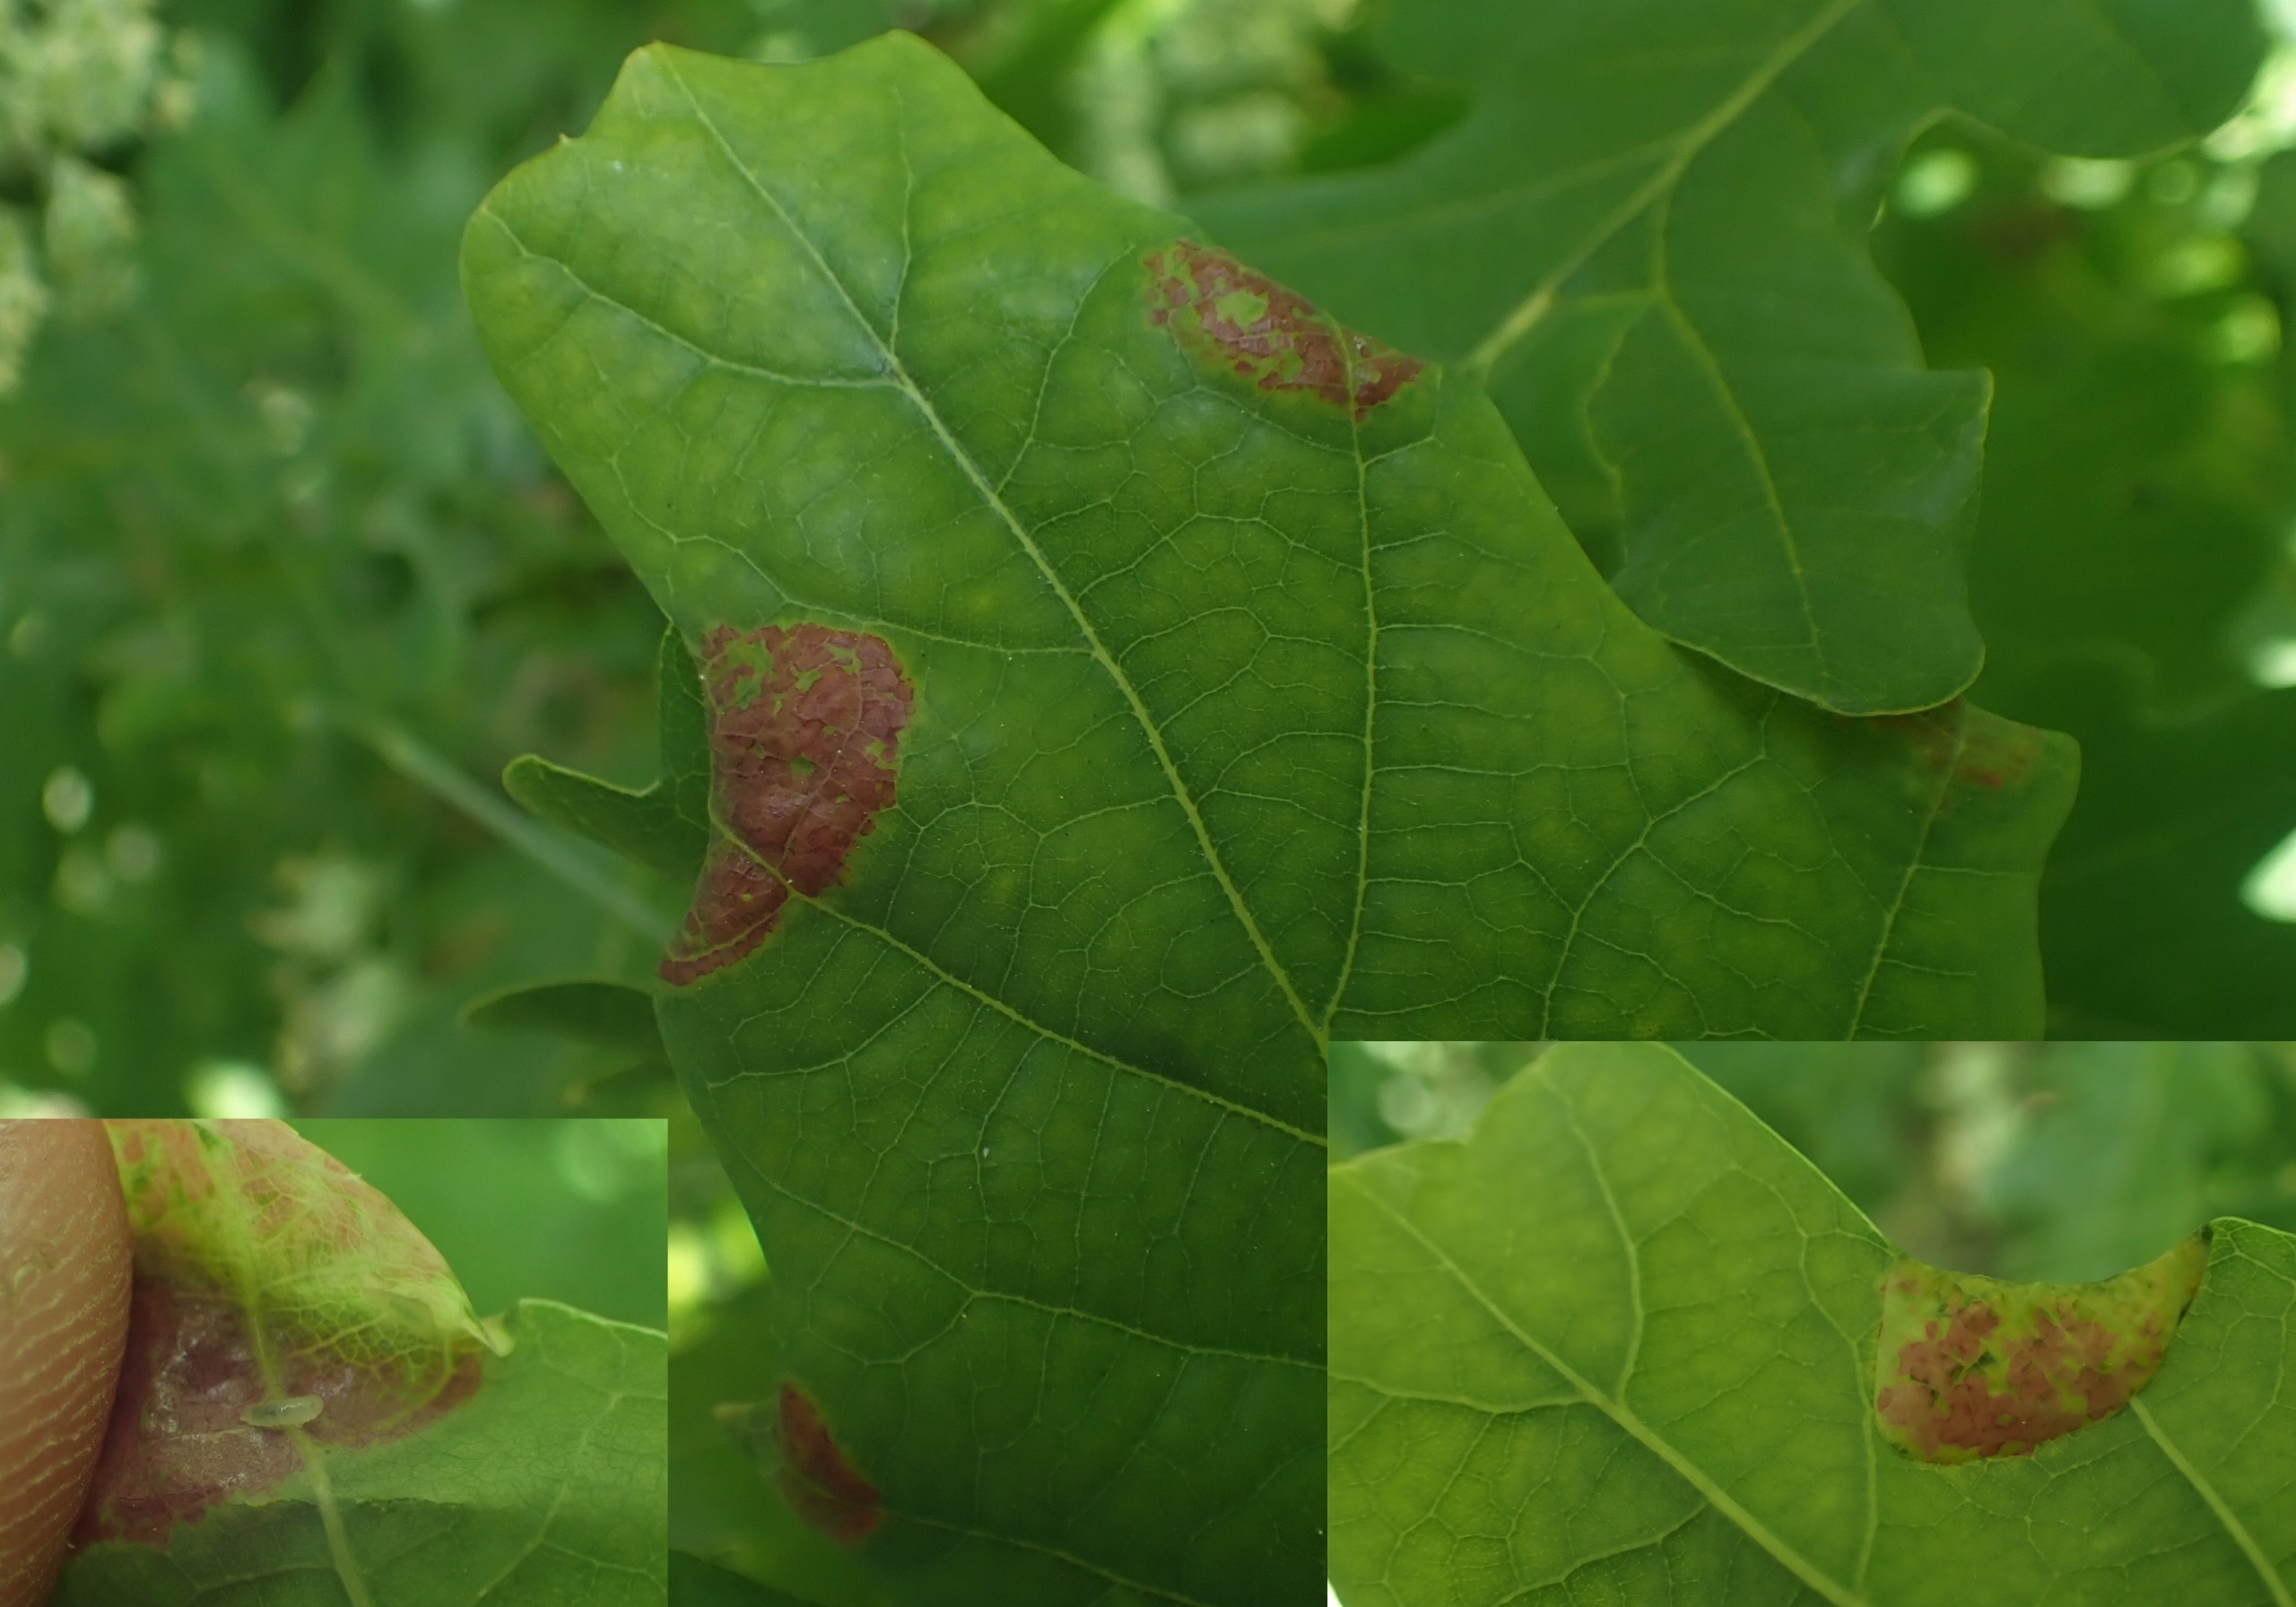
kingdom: Animalia
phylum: Arthropoda
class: Insecta
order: Diptera
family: Cecidomyiidae
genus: Macrodiplosis
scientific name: Macrodiplosis pustularis
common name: Marmorgalmyg
